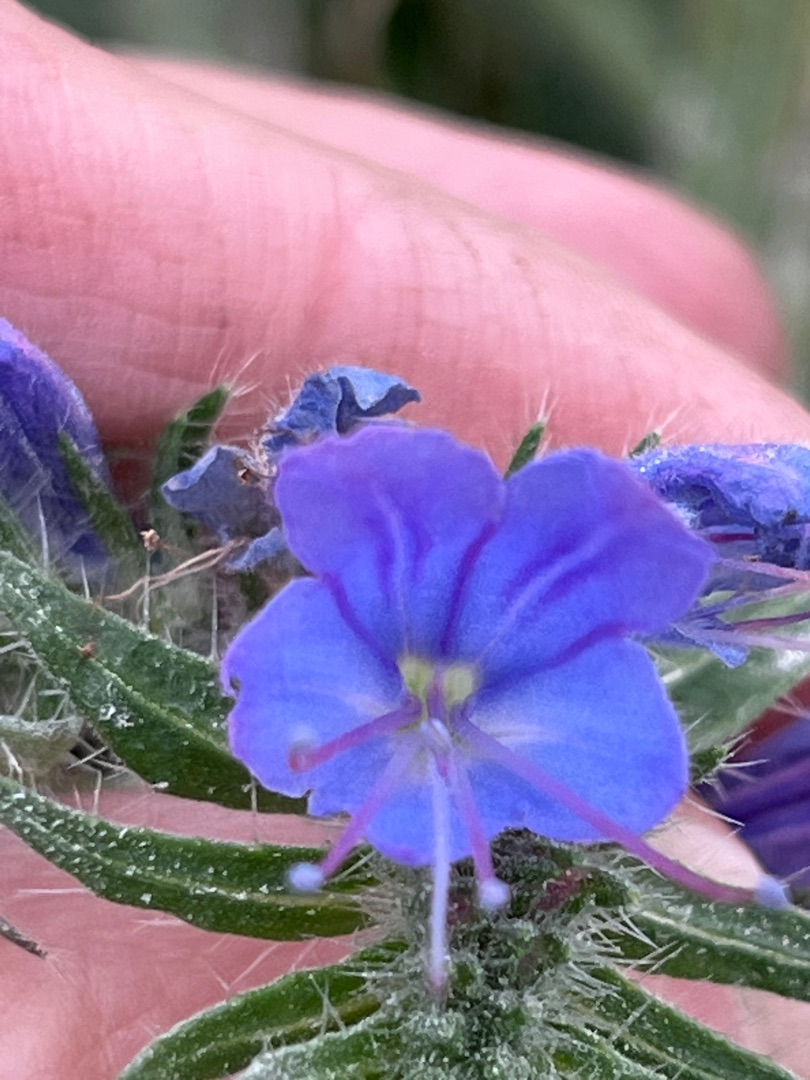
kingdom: Plantae
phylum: Tracheophyta
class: Magnoliopsida
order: Boraginales
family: Boraginaceae
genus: Echium
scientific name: Echium vulgare
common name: Slangehoved
